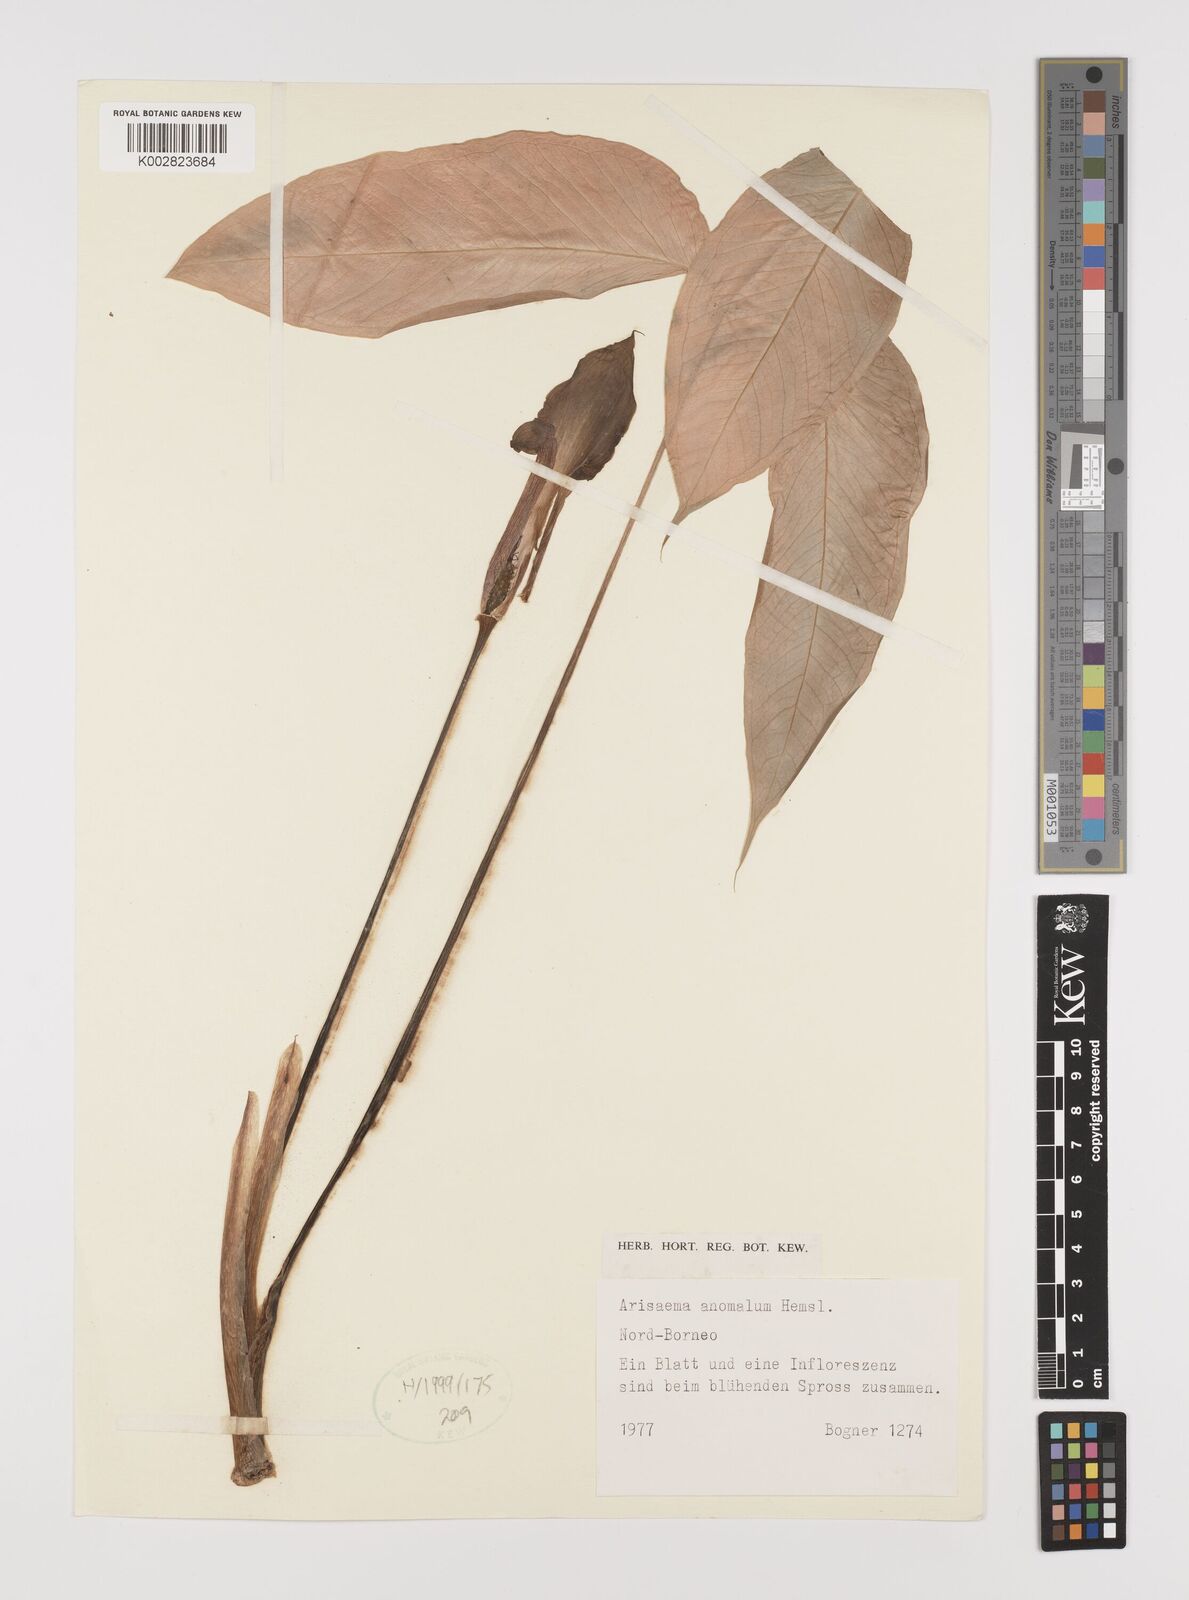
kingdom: Plantae
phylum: Tracheophyta
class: Liliopsida
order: Alismatales
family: Araceae
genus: Arisaema
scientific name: Arisaema anomalum
